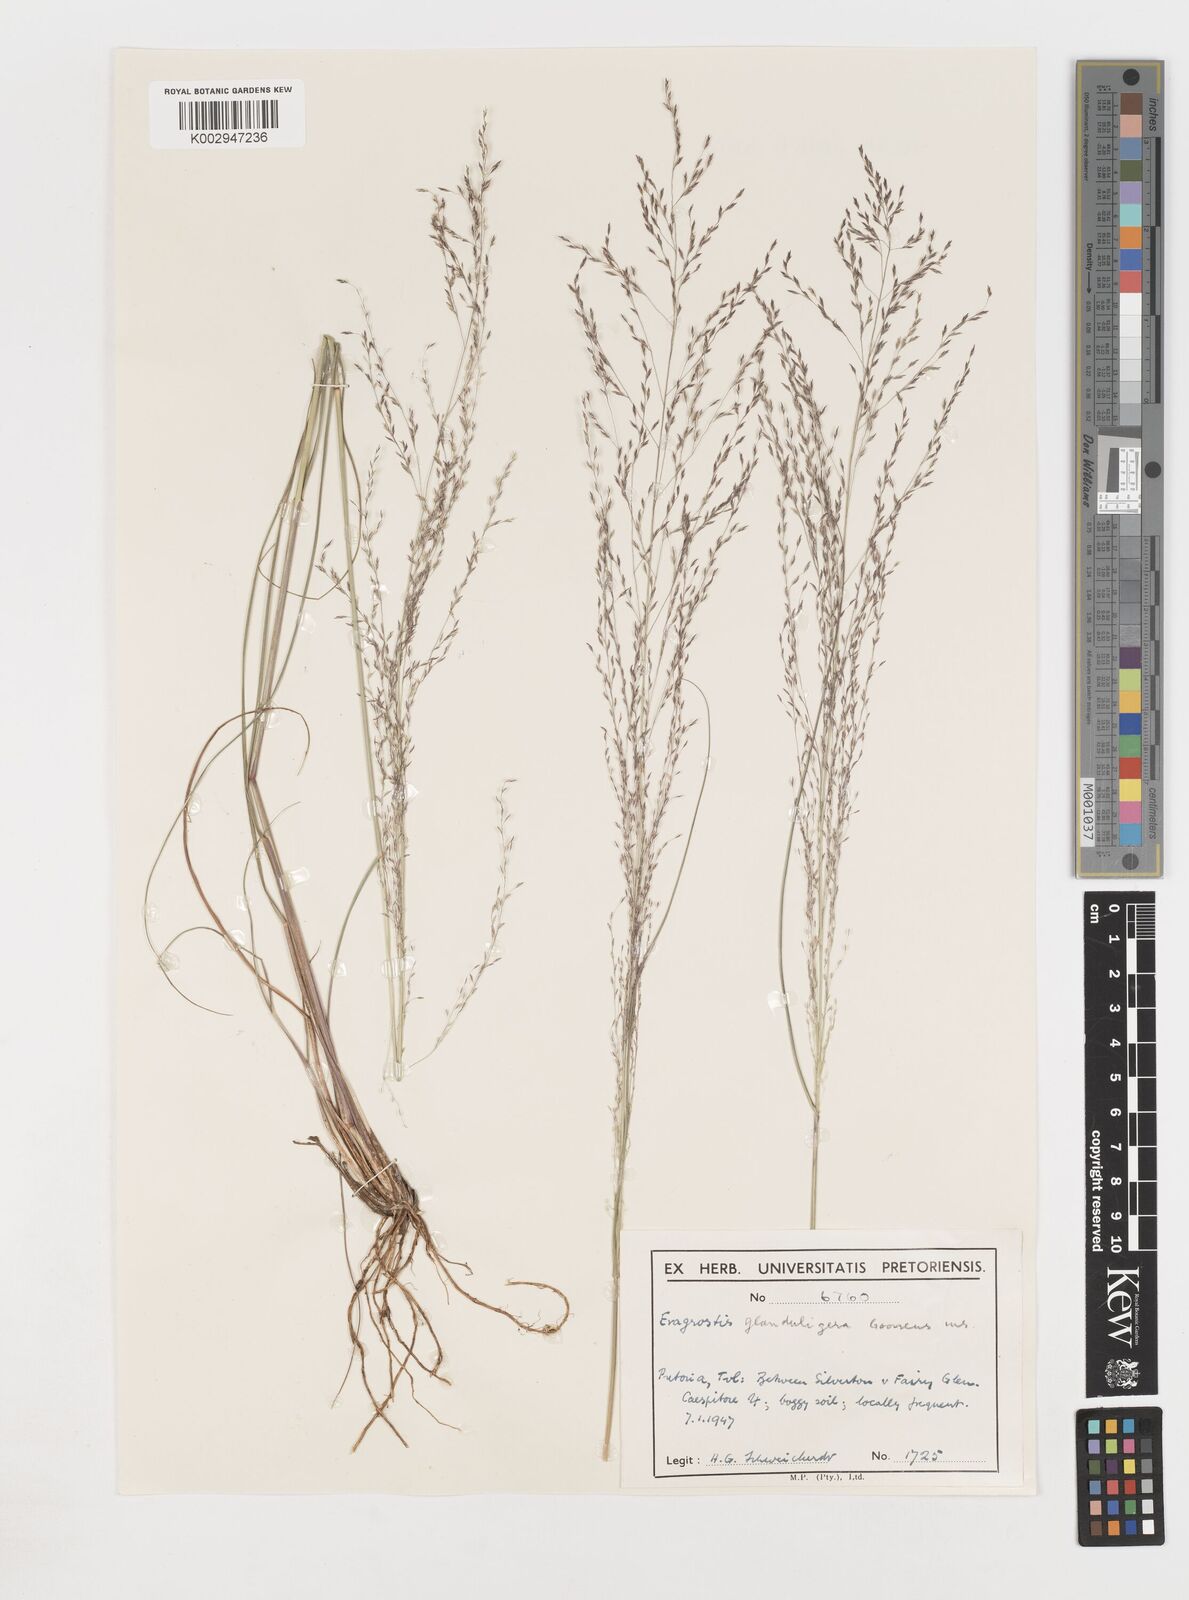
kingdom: Plantae
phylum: Tracheophyta
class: Liliopsida
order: Poales
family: Poaceae
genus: Eragrostis
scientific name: Eragrostis
